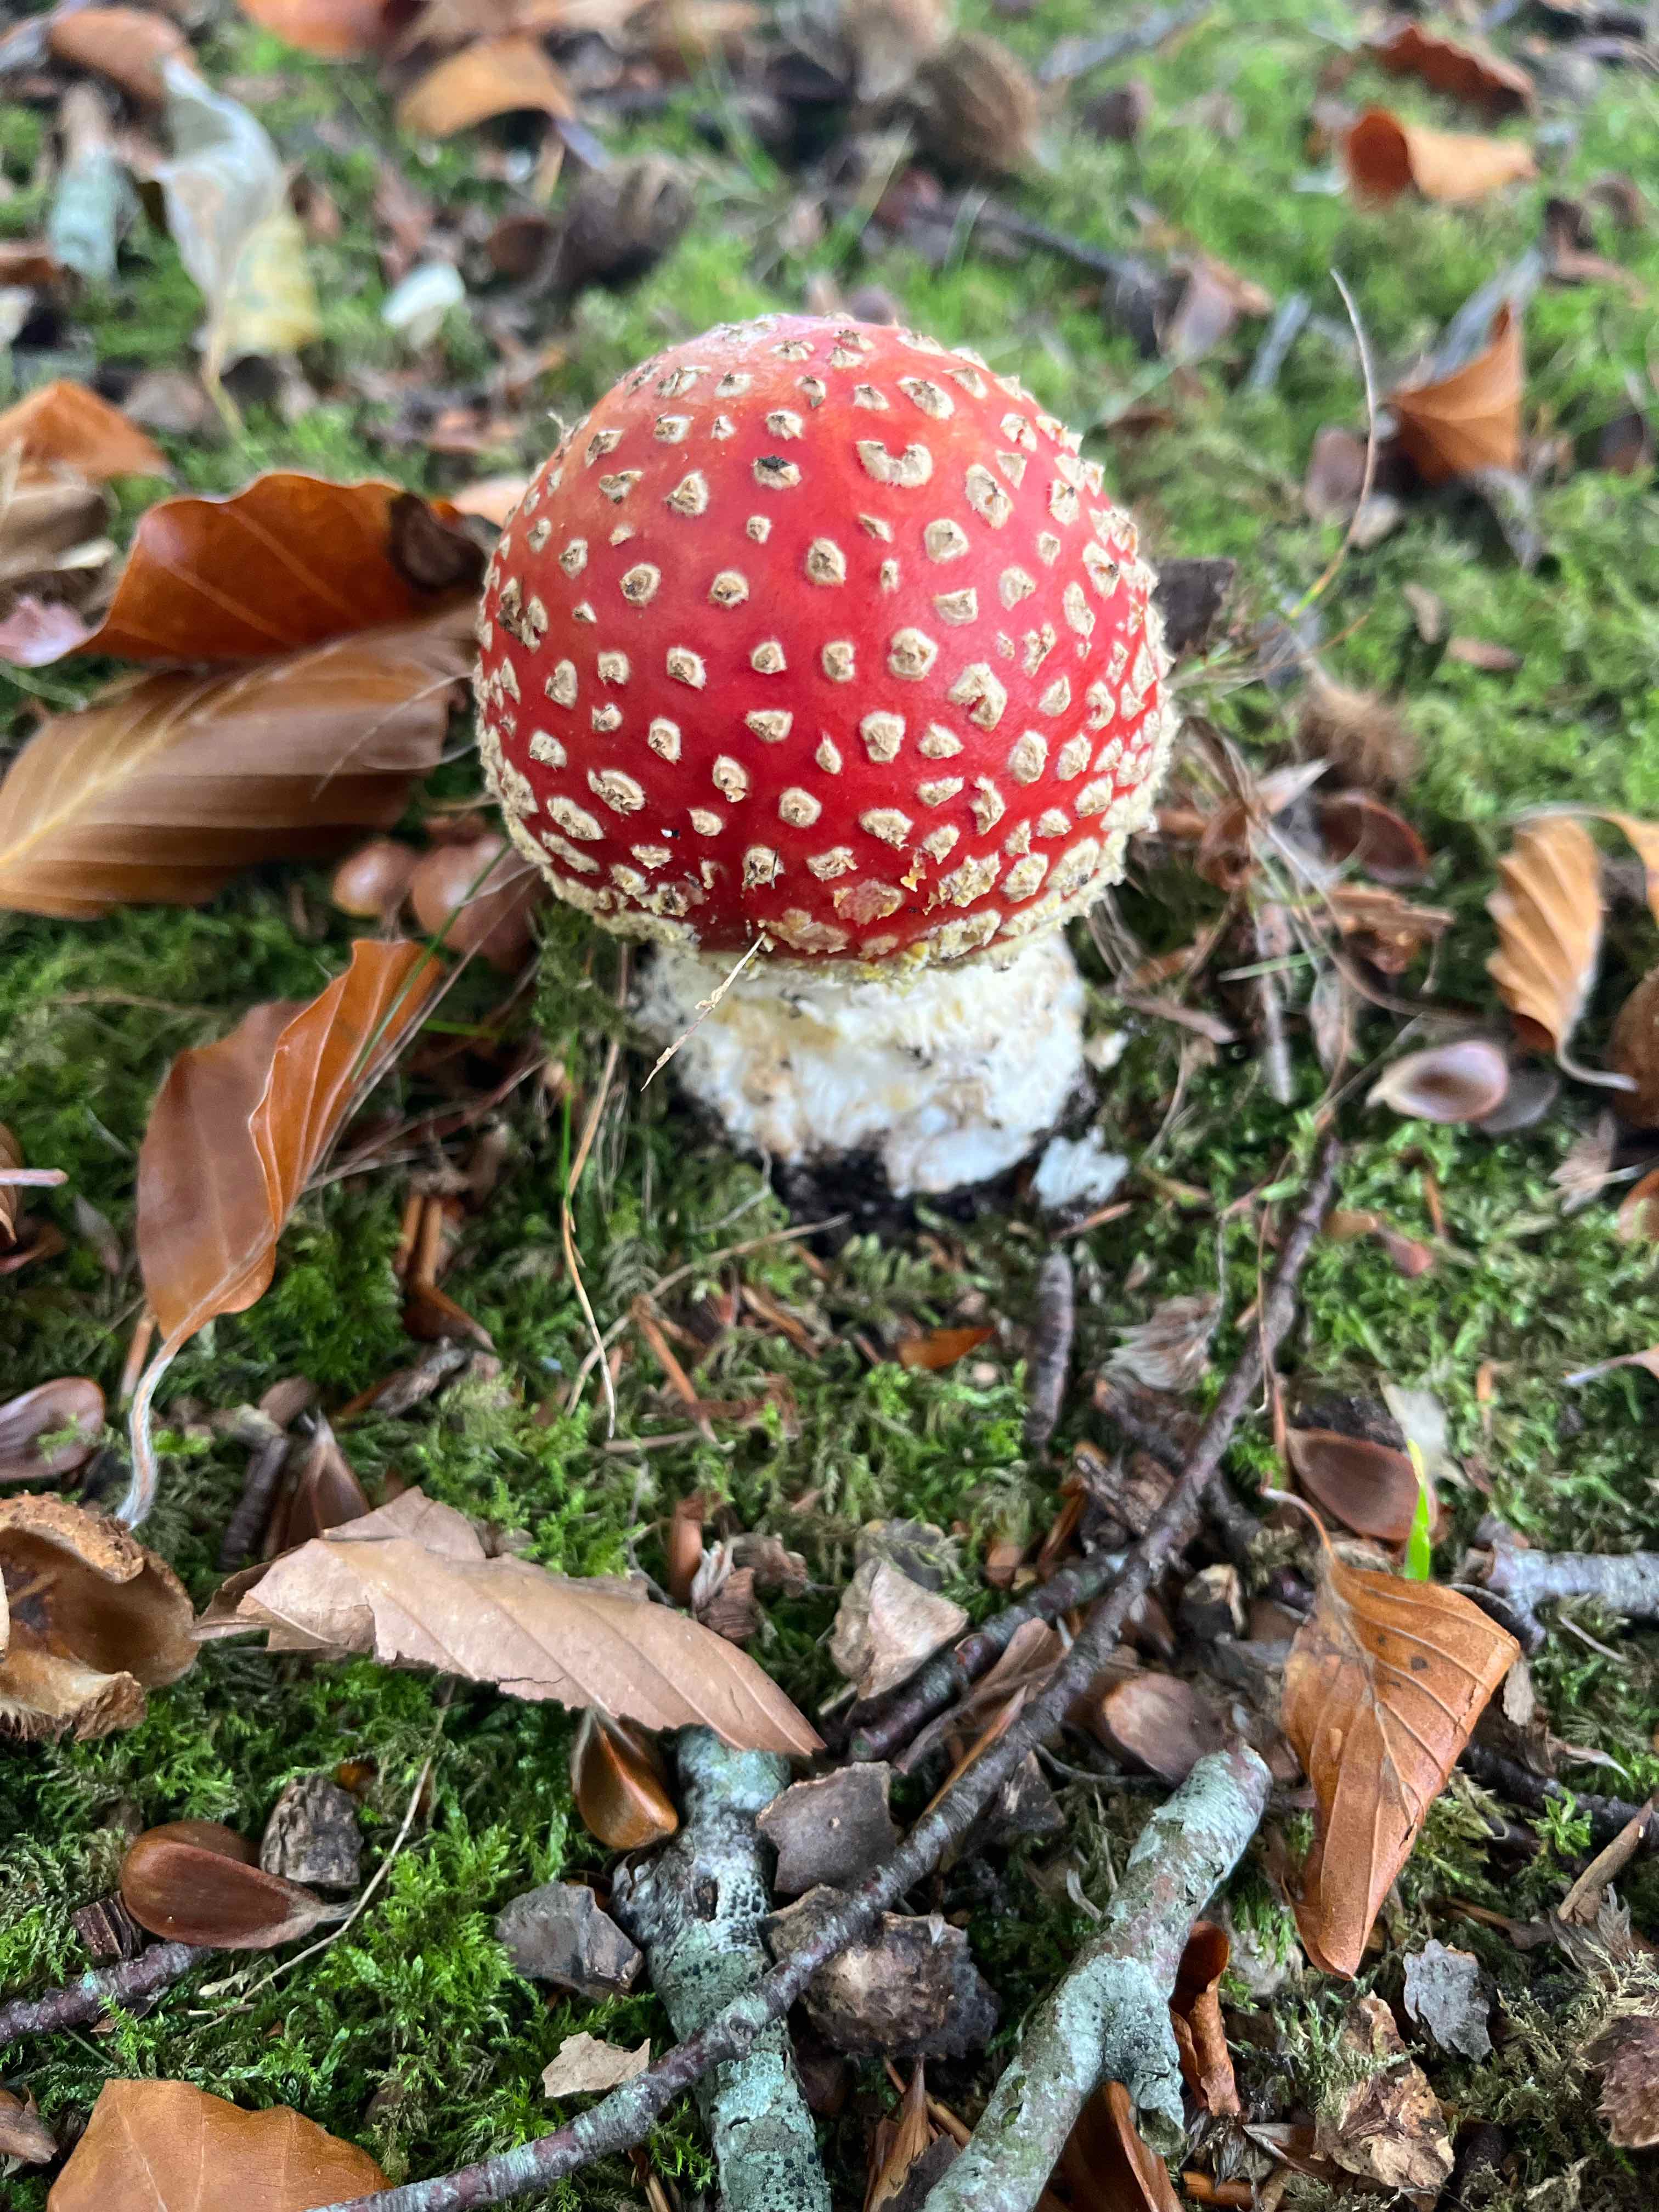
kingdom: Fungi
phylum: Basidiomycota
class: Agaricomycetes
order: Agaricales
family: Amanitaceae
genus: Amanita
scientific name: Amanita muscaria
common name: rød fluesvamp
